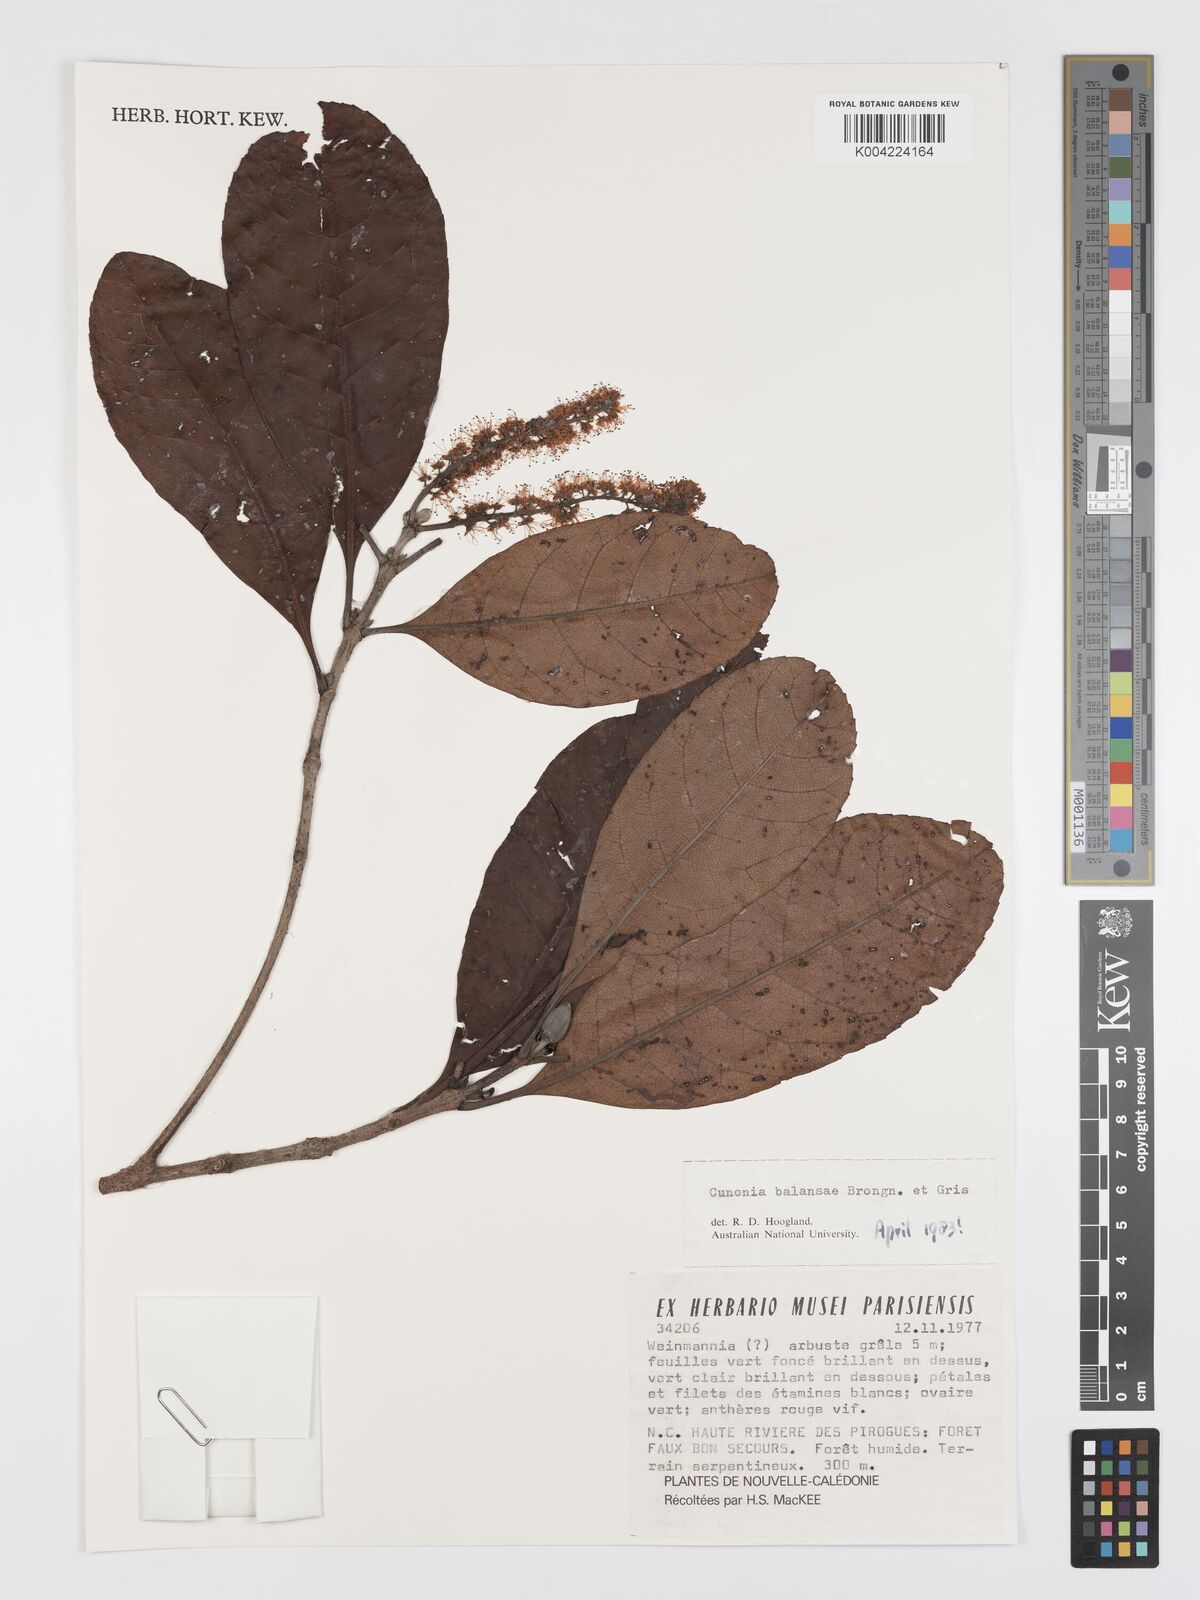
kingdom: Plantae
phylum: Tracheophyta
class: Magnoliopsida
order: Oxalidales
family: Cunoniaceae
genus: Cunonia
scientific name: Cunonia balansae
